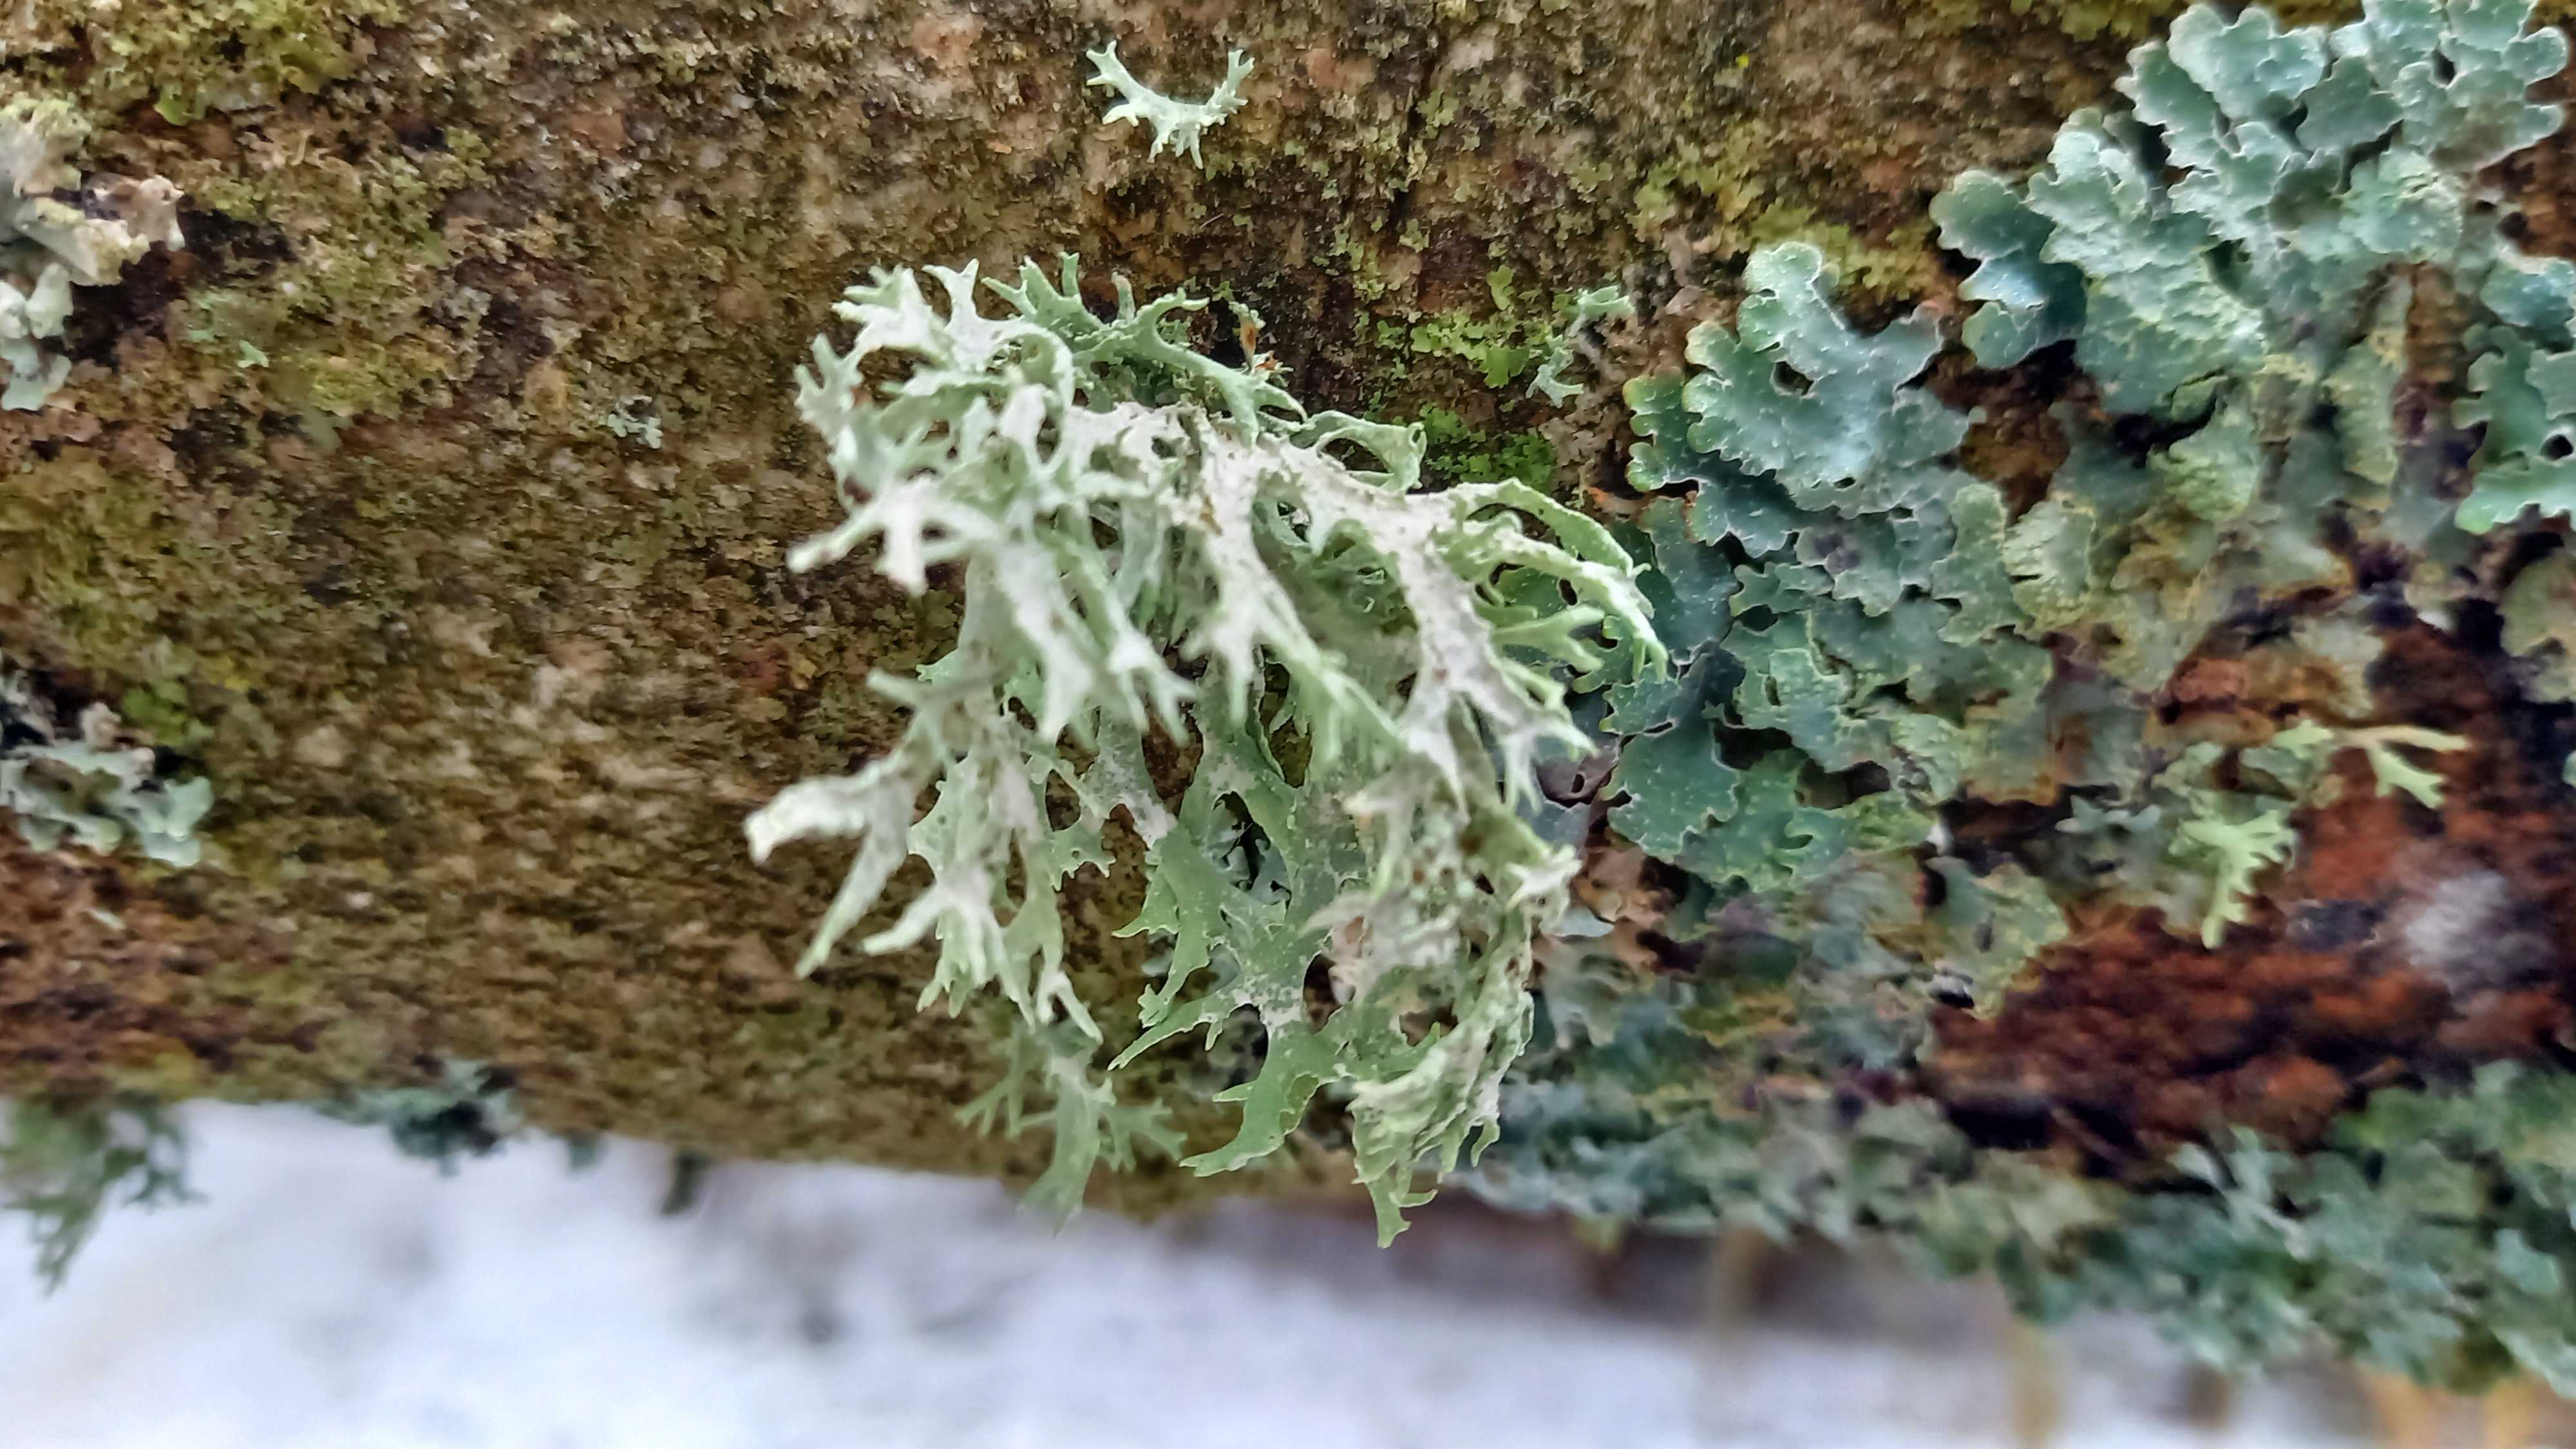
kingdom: Fungi
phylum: Ascomycota
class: Lecanoromycetes
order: Lecanorales
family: Parmeliaceae
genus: Evernia
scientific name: Evernia prunastri
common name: almindelig slåenlav
